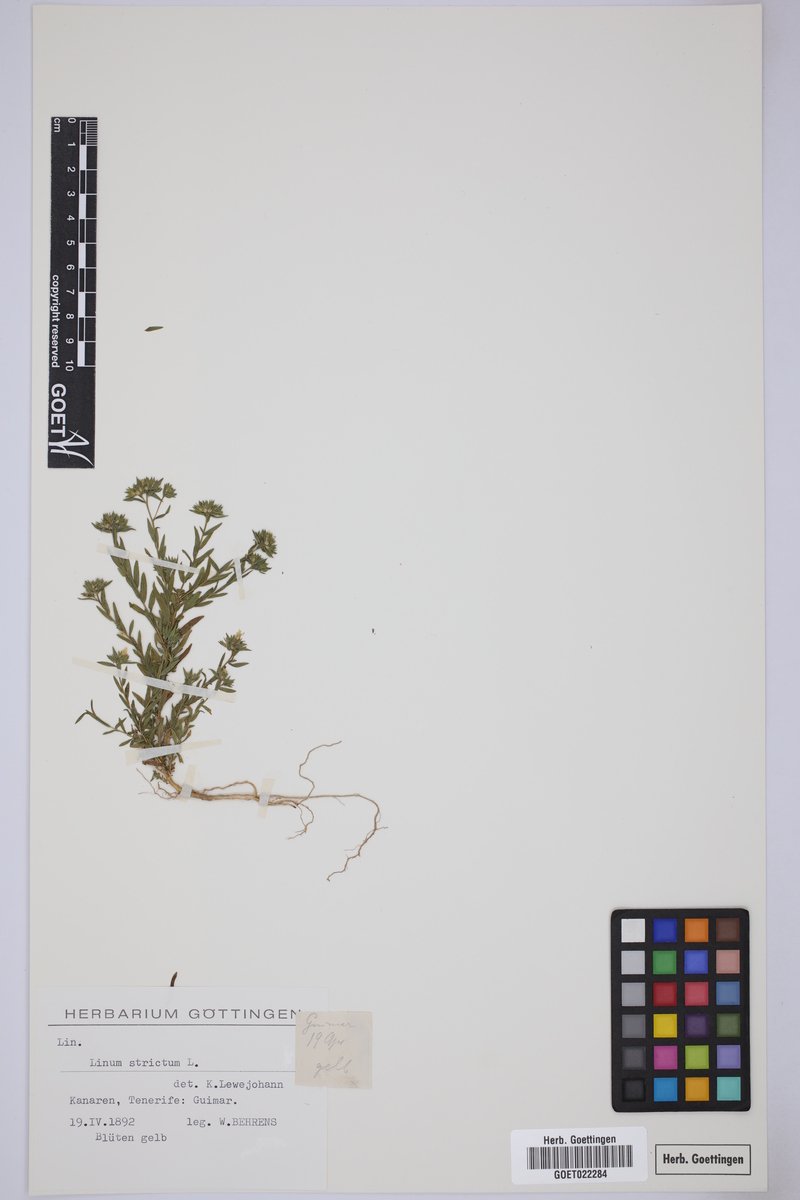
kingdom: Plantae
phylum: Tracheophyta
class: Magnoliopsida
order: Malpighiales
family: Linaceae
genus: Linum
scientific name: Linum strictum
